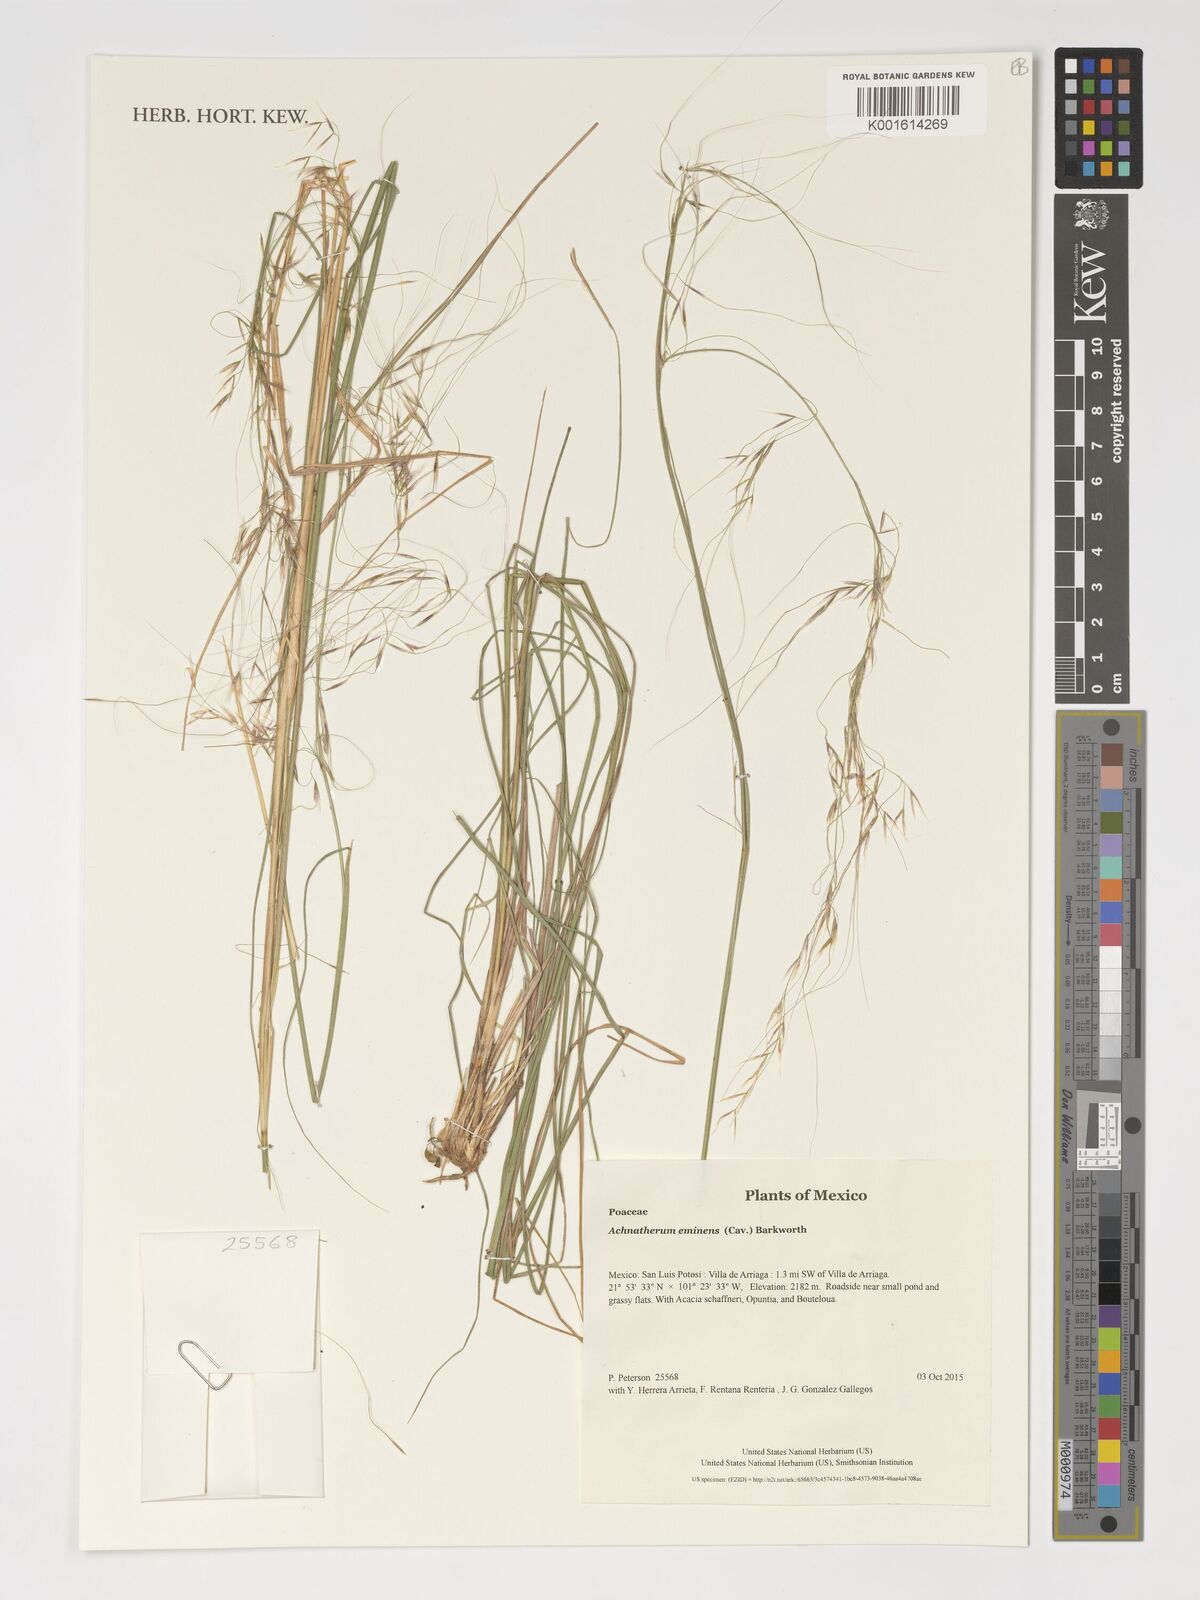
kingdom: Plantae
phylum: Tracheophyta
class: Liliopsida
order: Poales
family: Poaceae
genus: Pseudoeriocoma
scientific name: Pseudoeriocoma eminens
